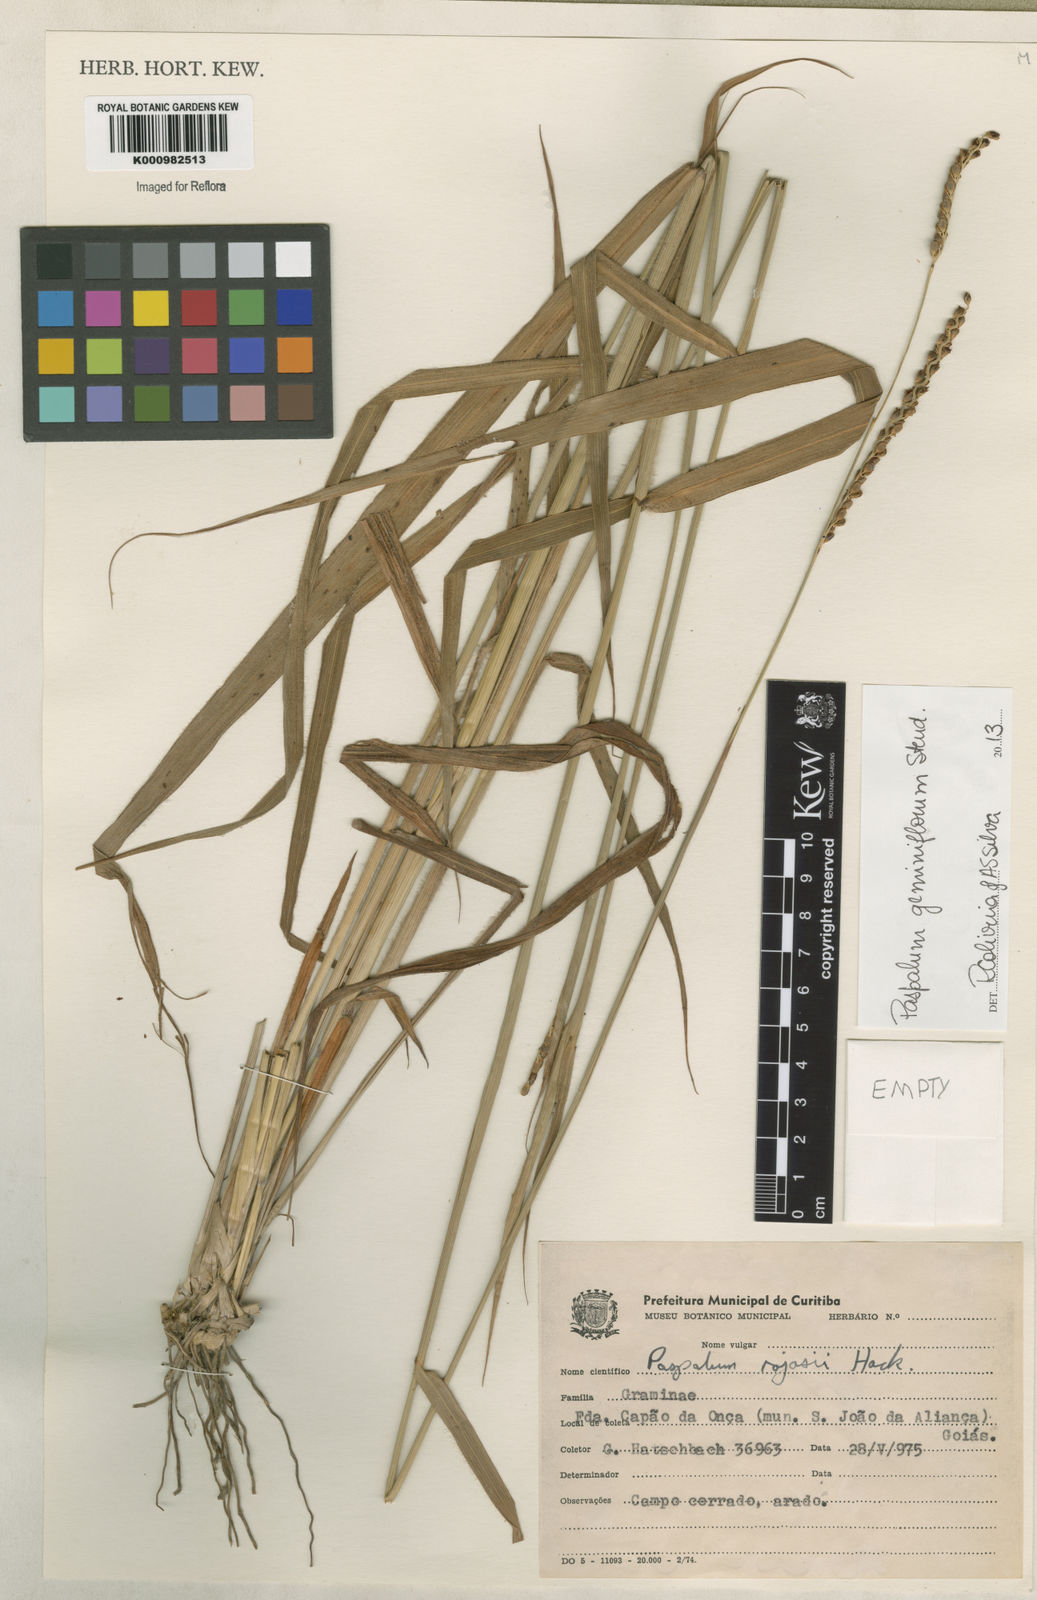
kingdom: Plantae
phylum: Tracheophyta
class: Liliopsida
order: Poales
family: Poaceae
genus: Paspalum
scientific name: Paspalum geminiflorum
